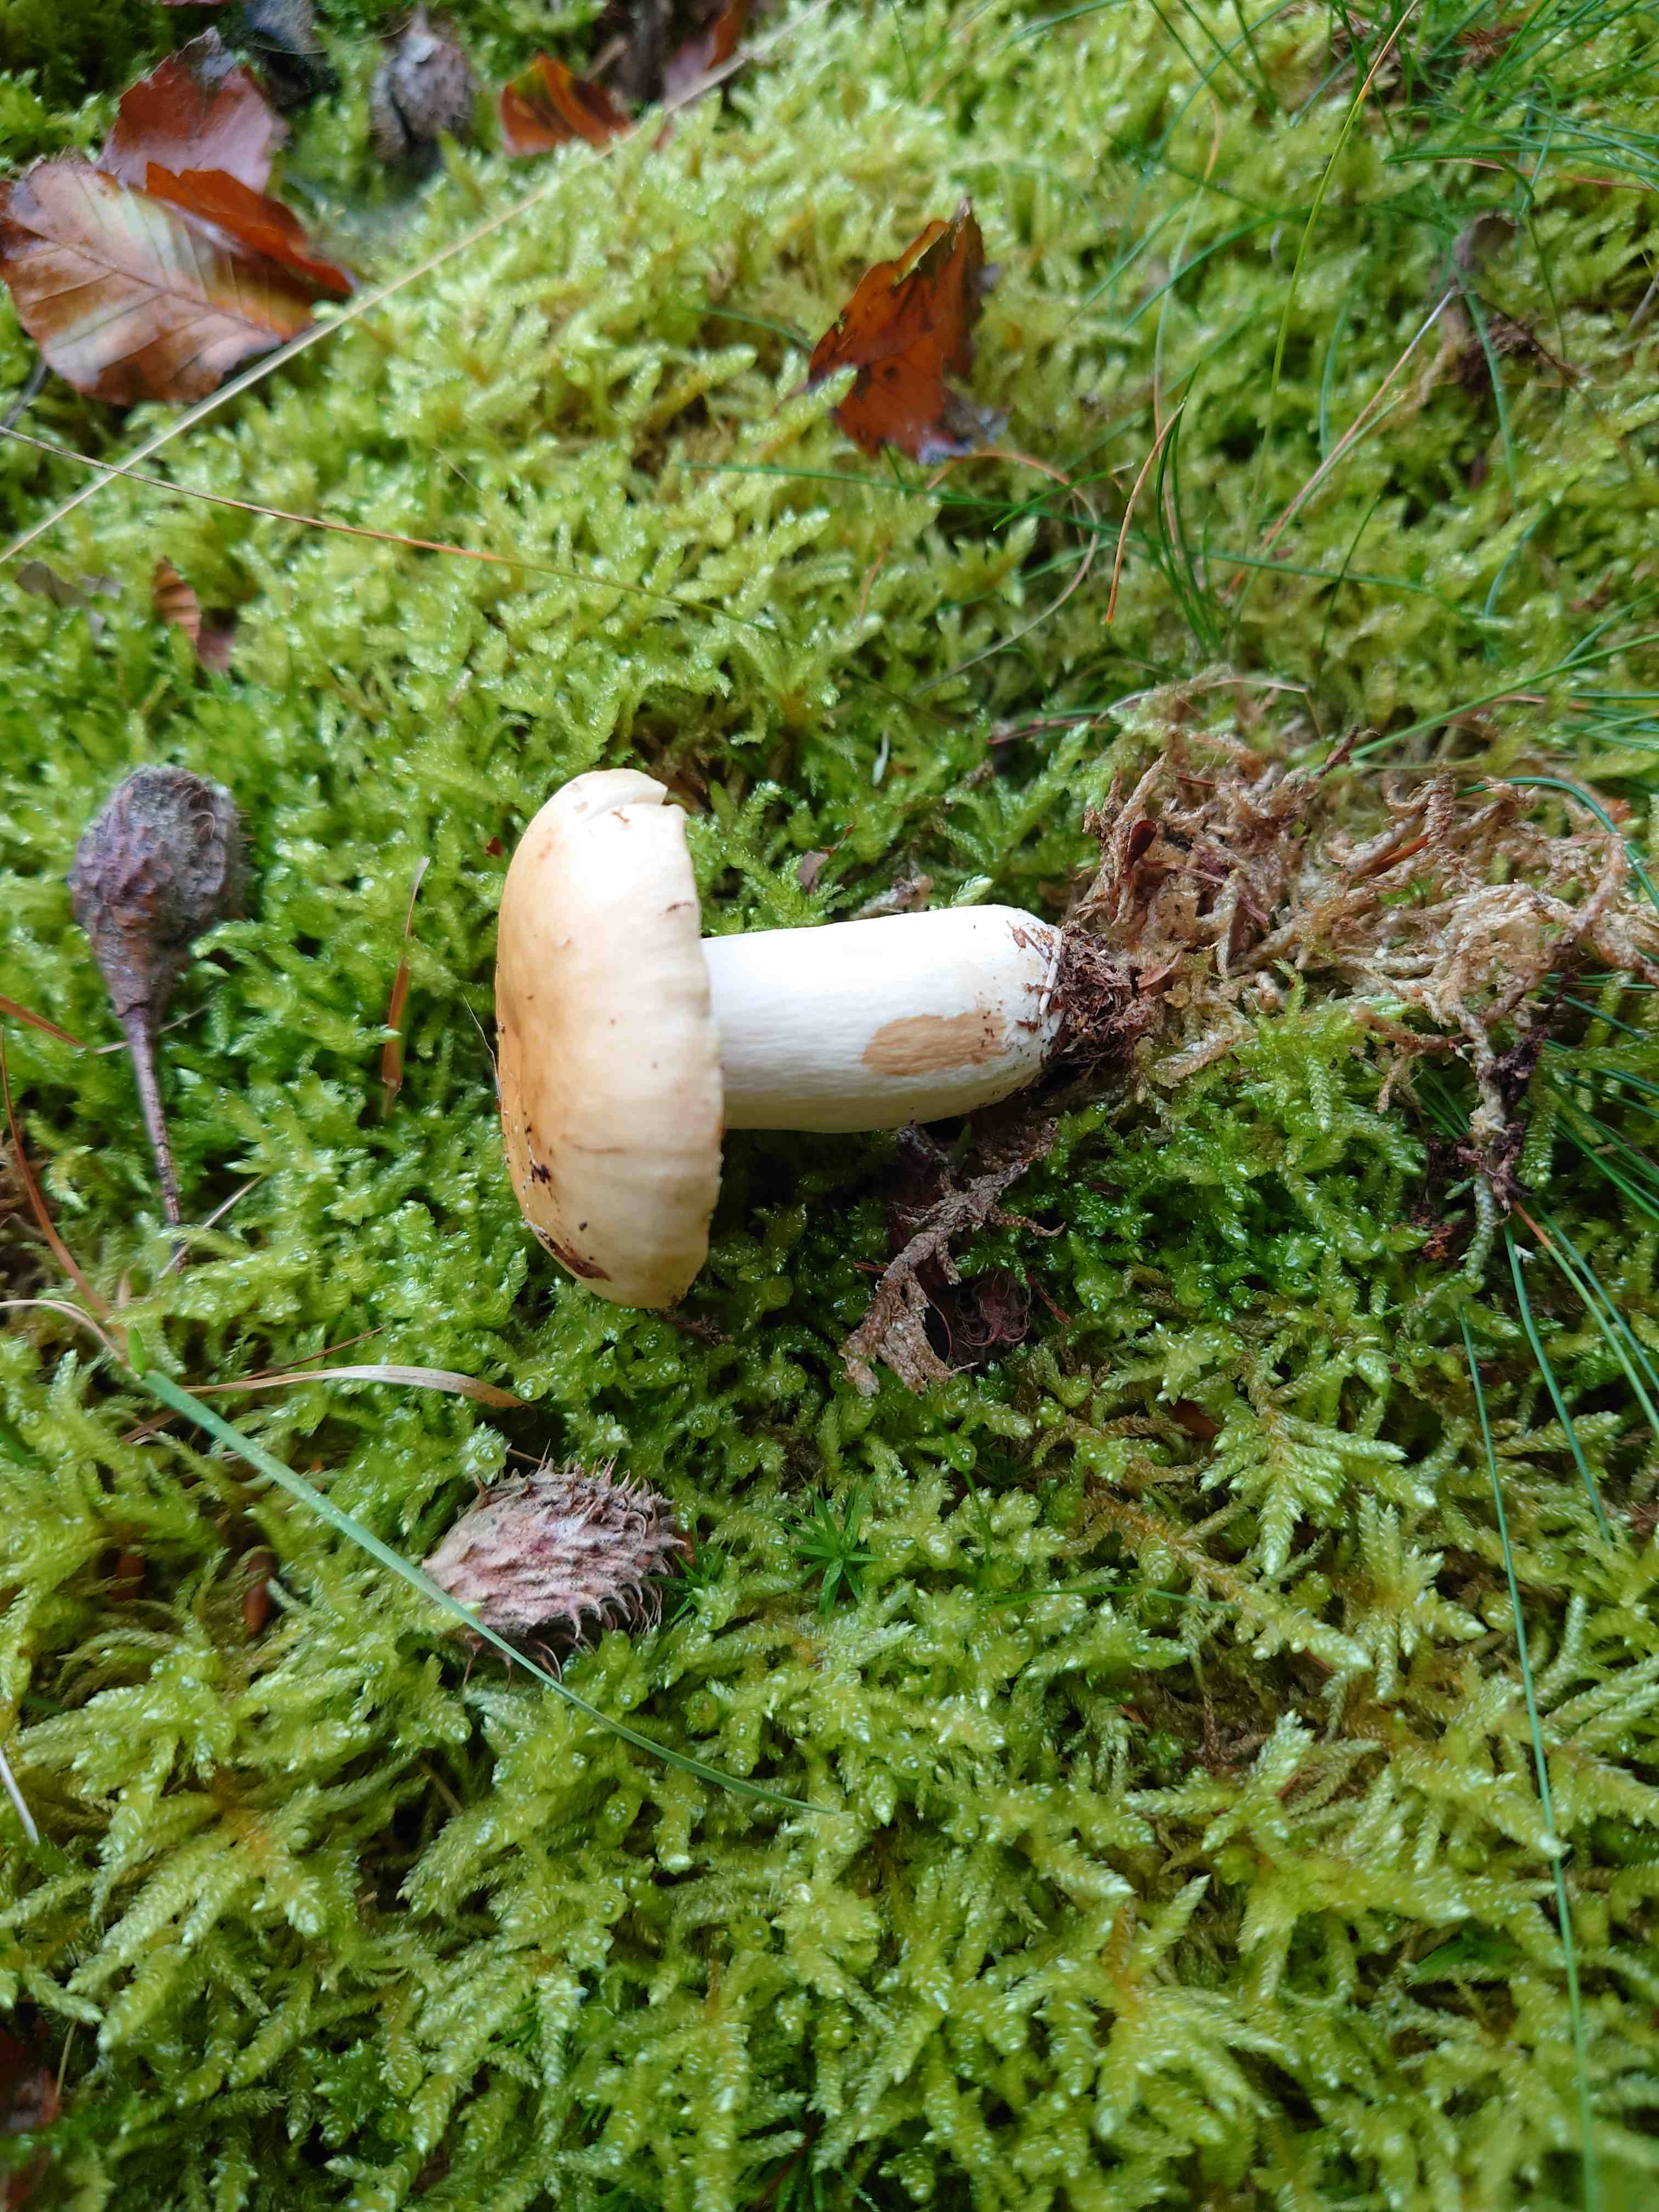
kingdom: Fungi
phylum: Basidiomycota
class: Agaricomycetes
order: Russulales
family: Russulaceae
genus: Russula
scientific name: Russula fellea
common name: galde-skørhat
